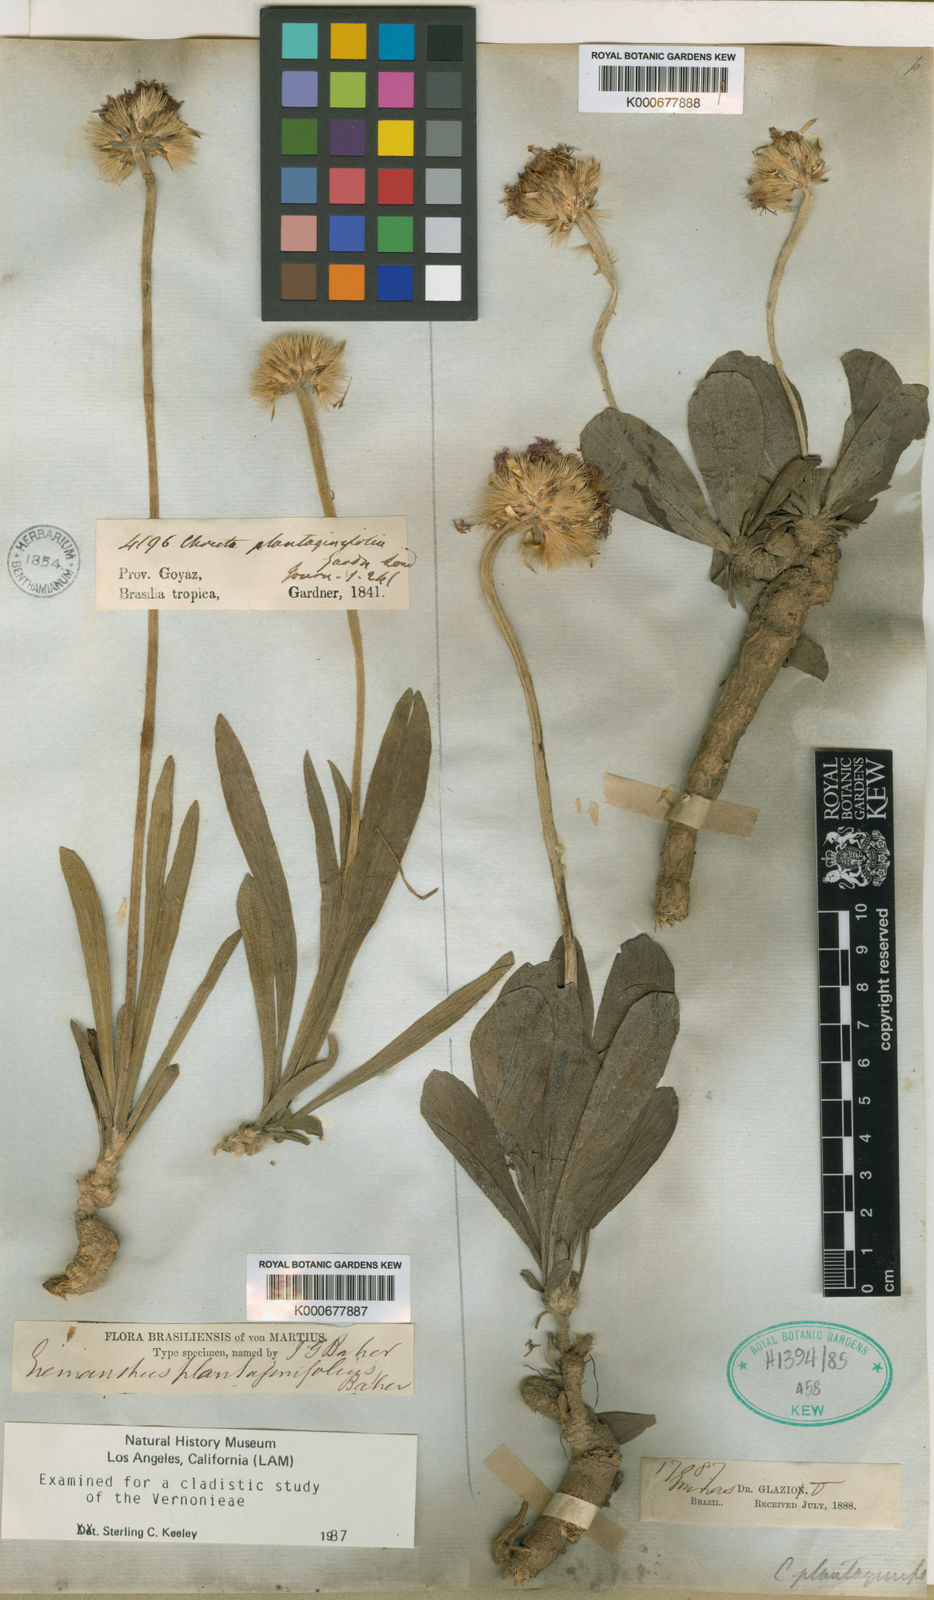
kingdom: Plantae
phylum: Tracheophyta
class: Magnoliopsida
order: Asterales
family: Asteraceae
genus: Chresta
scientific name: Chresta plantaginifolia
